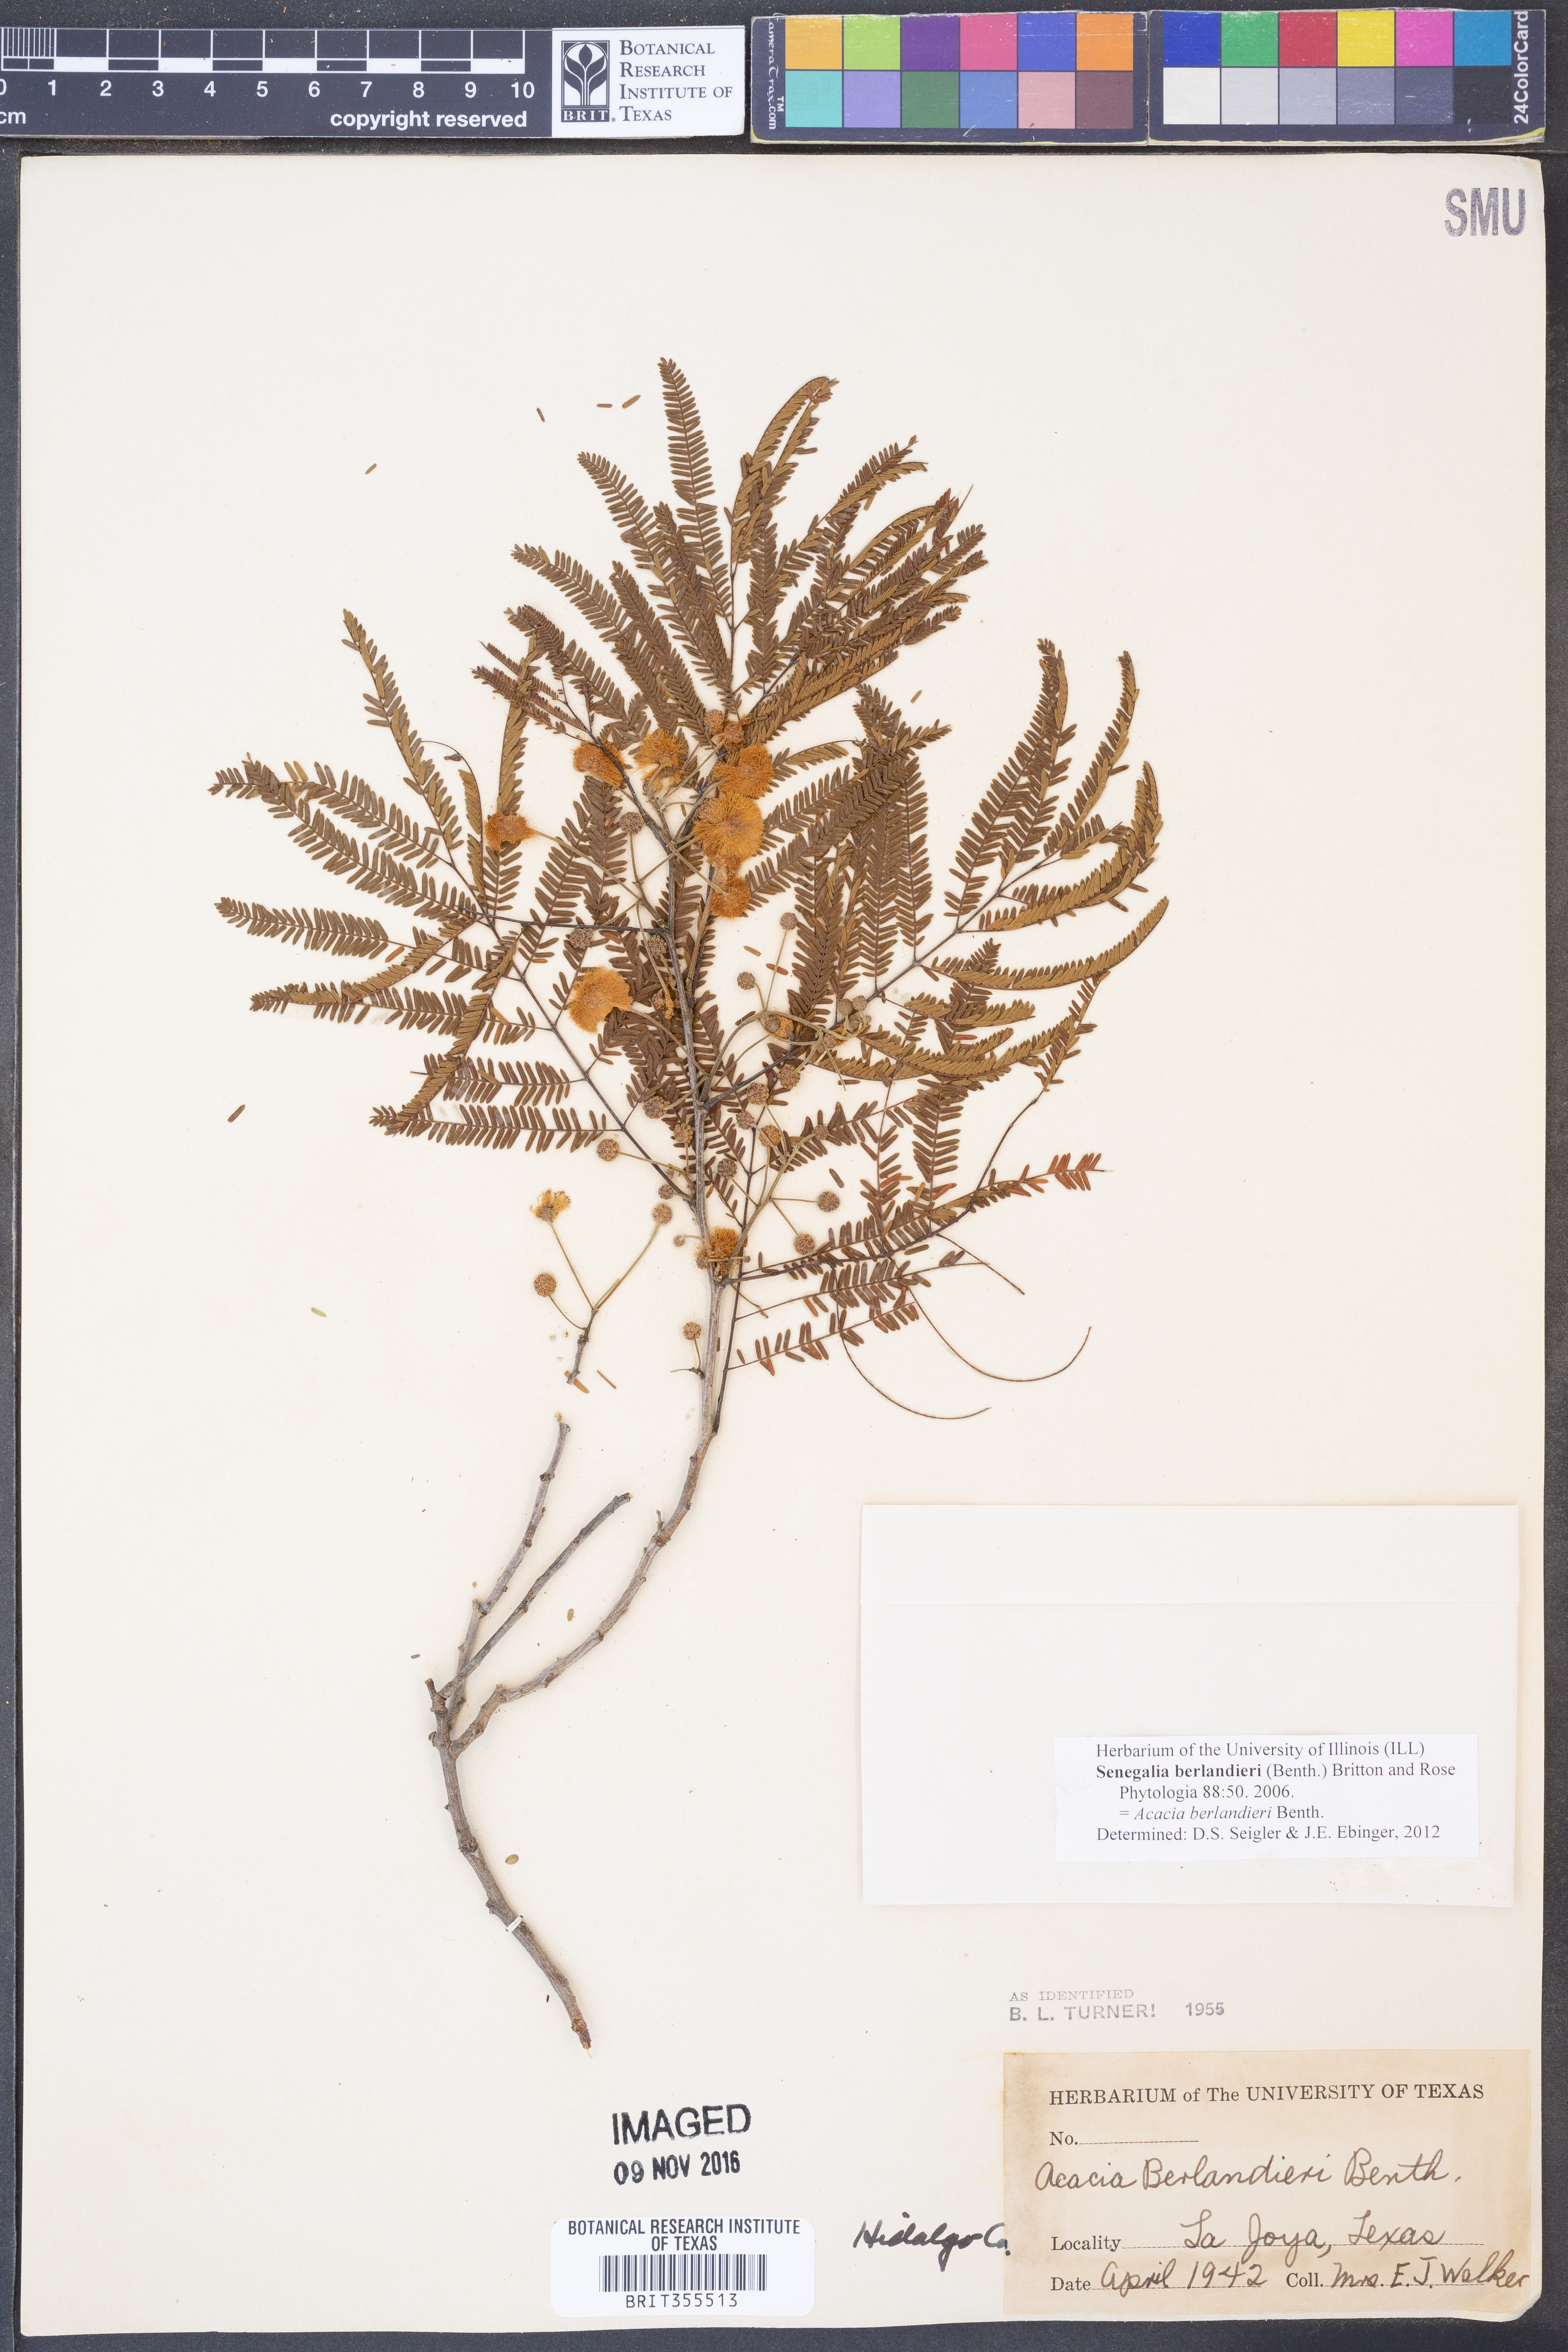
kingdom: Plantae
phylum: Tracheophyta
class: Magnoliopsida
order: Fabales
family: Fabaceae
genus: Senegalia
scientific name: Senegalia berlandieri
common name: Berlandier acacia
